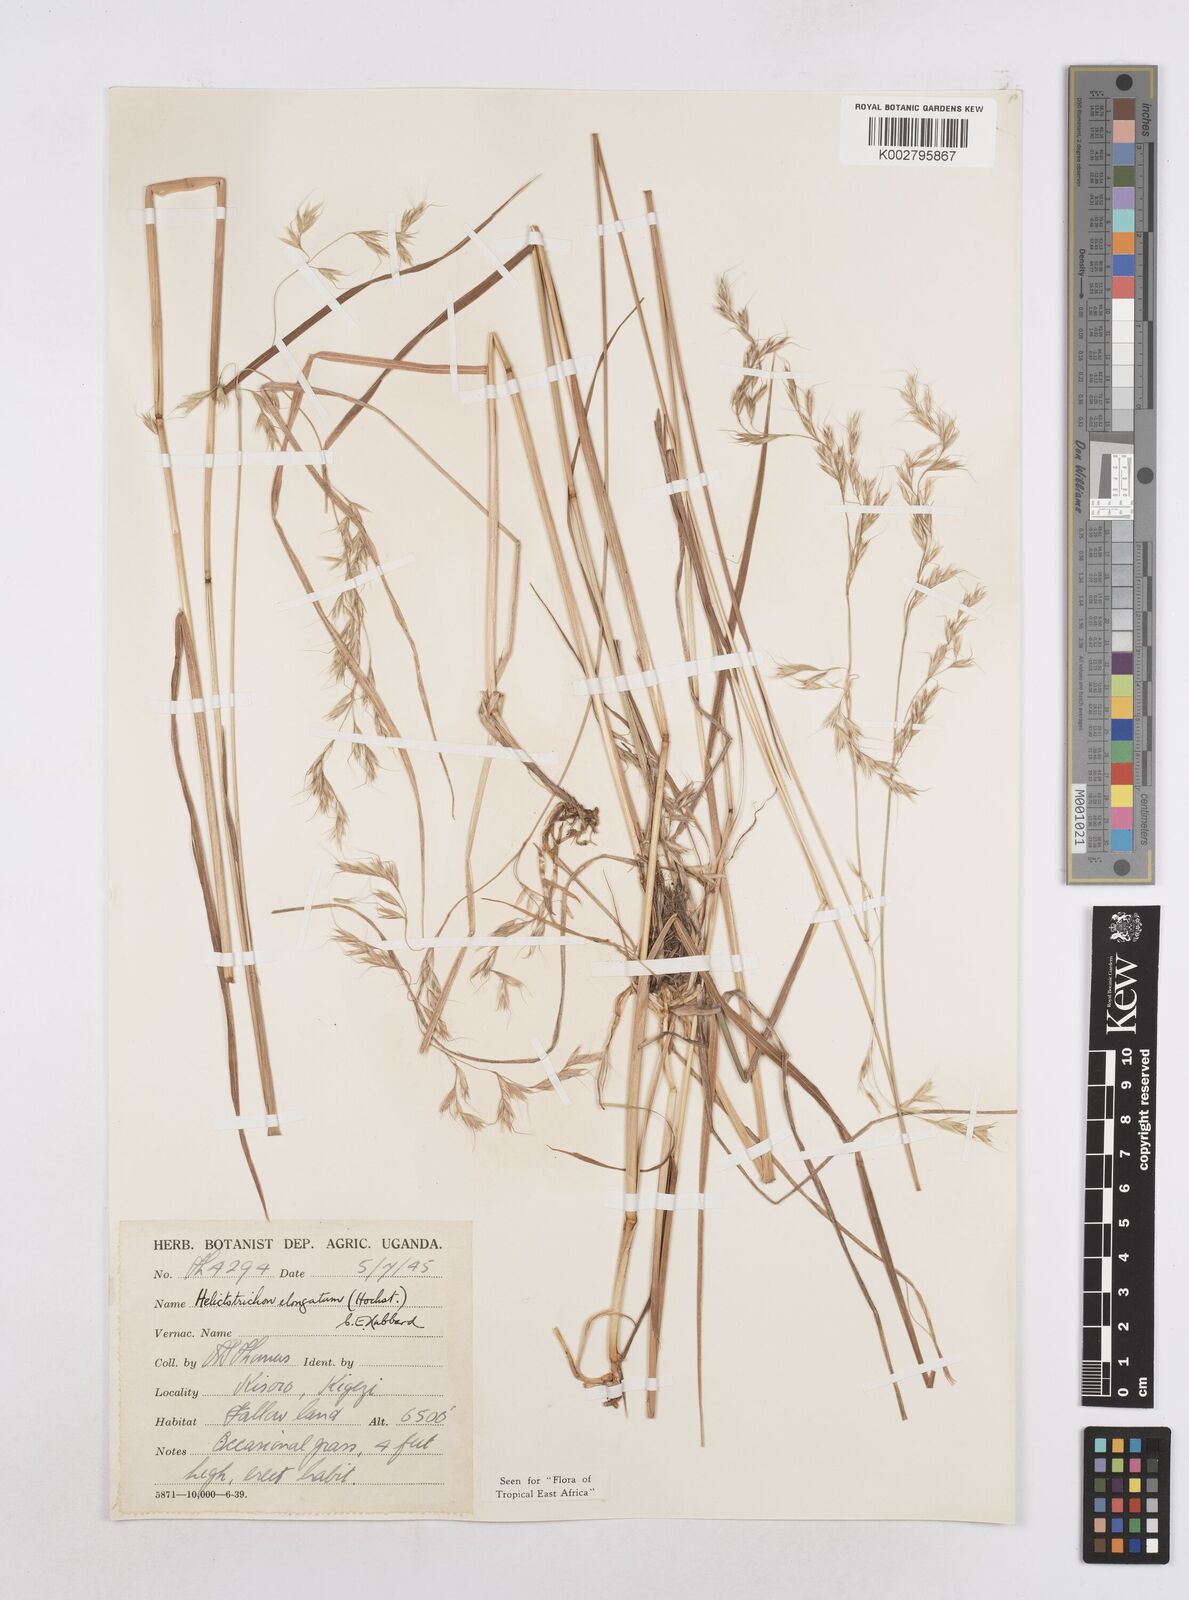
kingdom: Plantae
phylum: Tracheophyta
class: Liliopsida
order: Poales
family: Poaceae
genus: Trisetopsis
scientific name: Trisetopsis elongata
